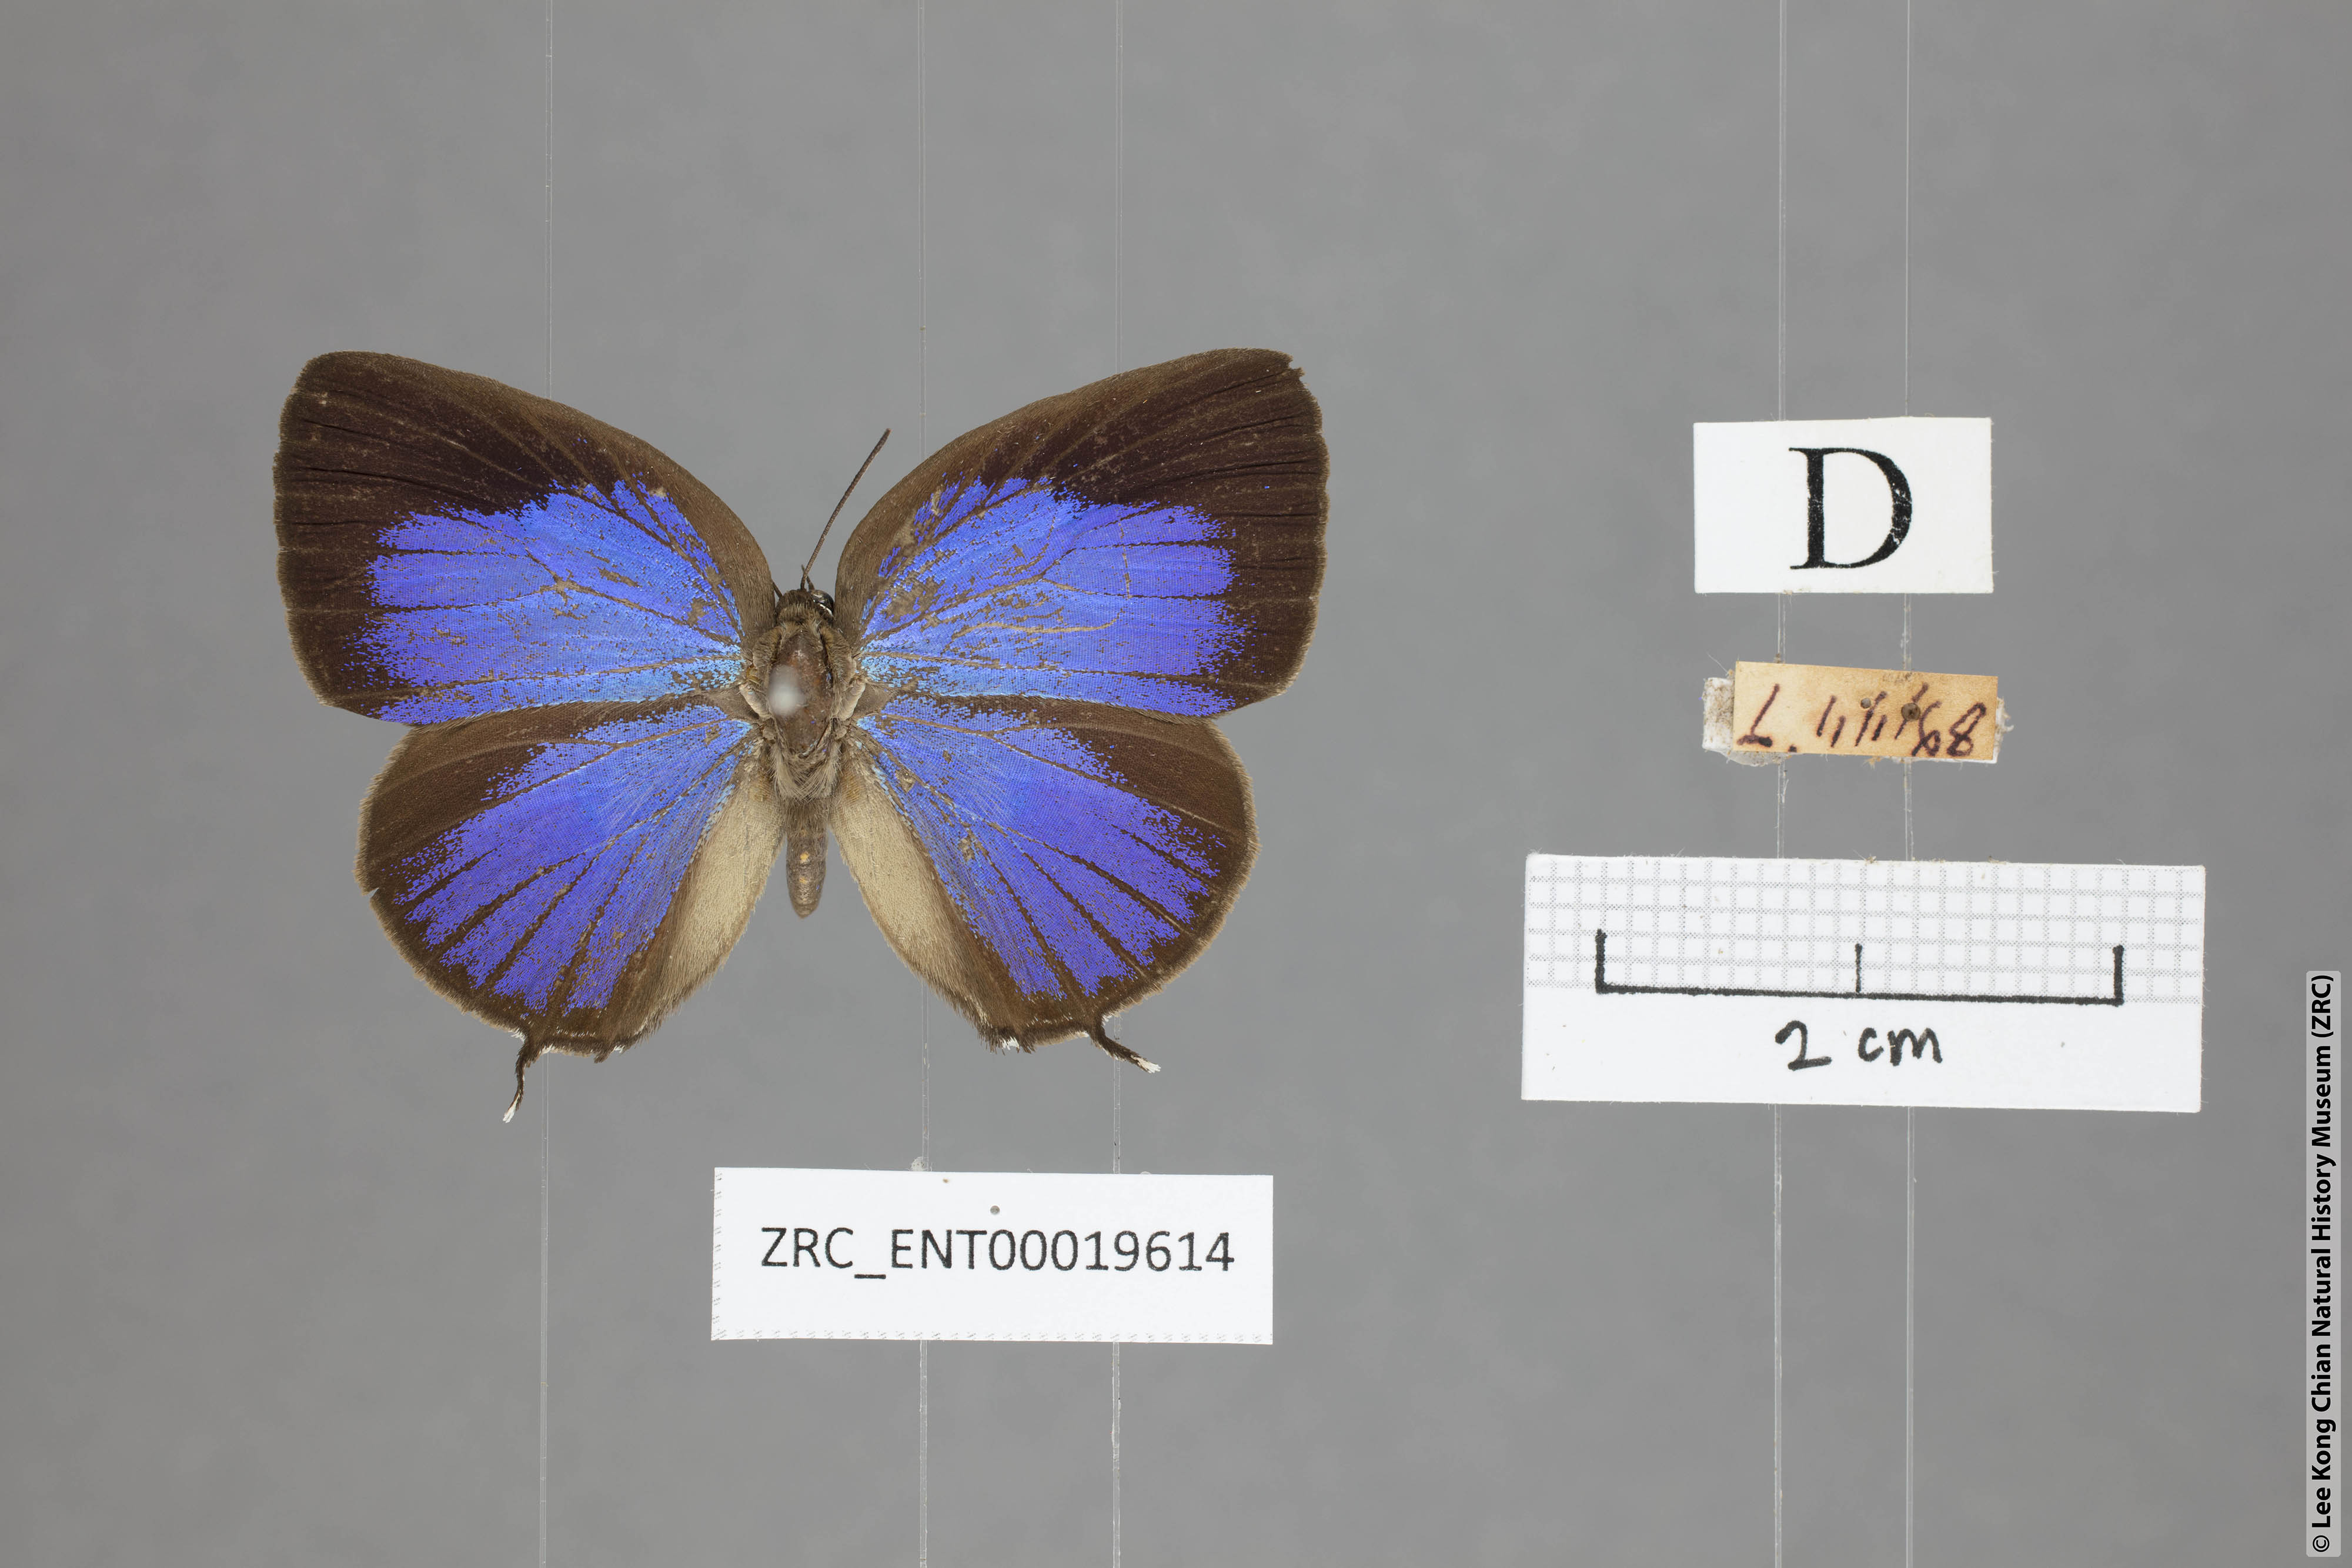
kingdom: Animalia
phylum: Arthropoda
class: Insecta
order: Lepidoptera
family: Lycaenidae
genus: Arhopala
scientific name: Arhopala atosia
